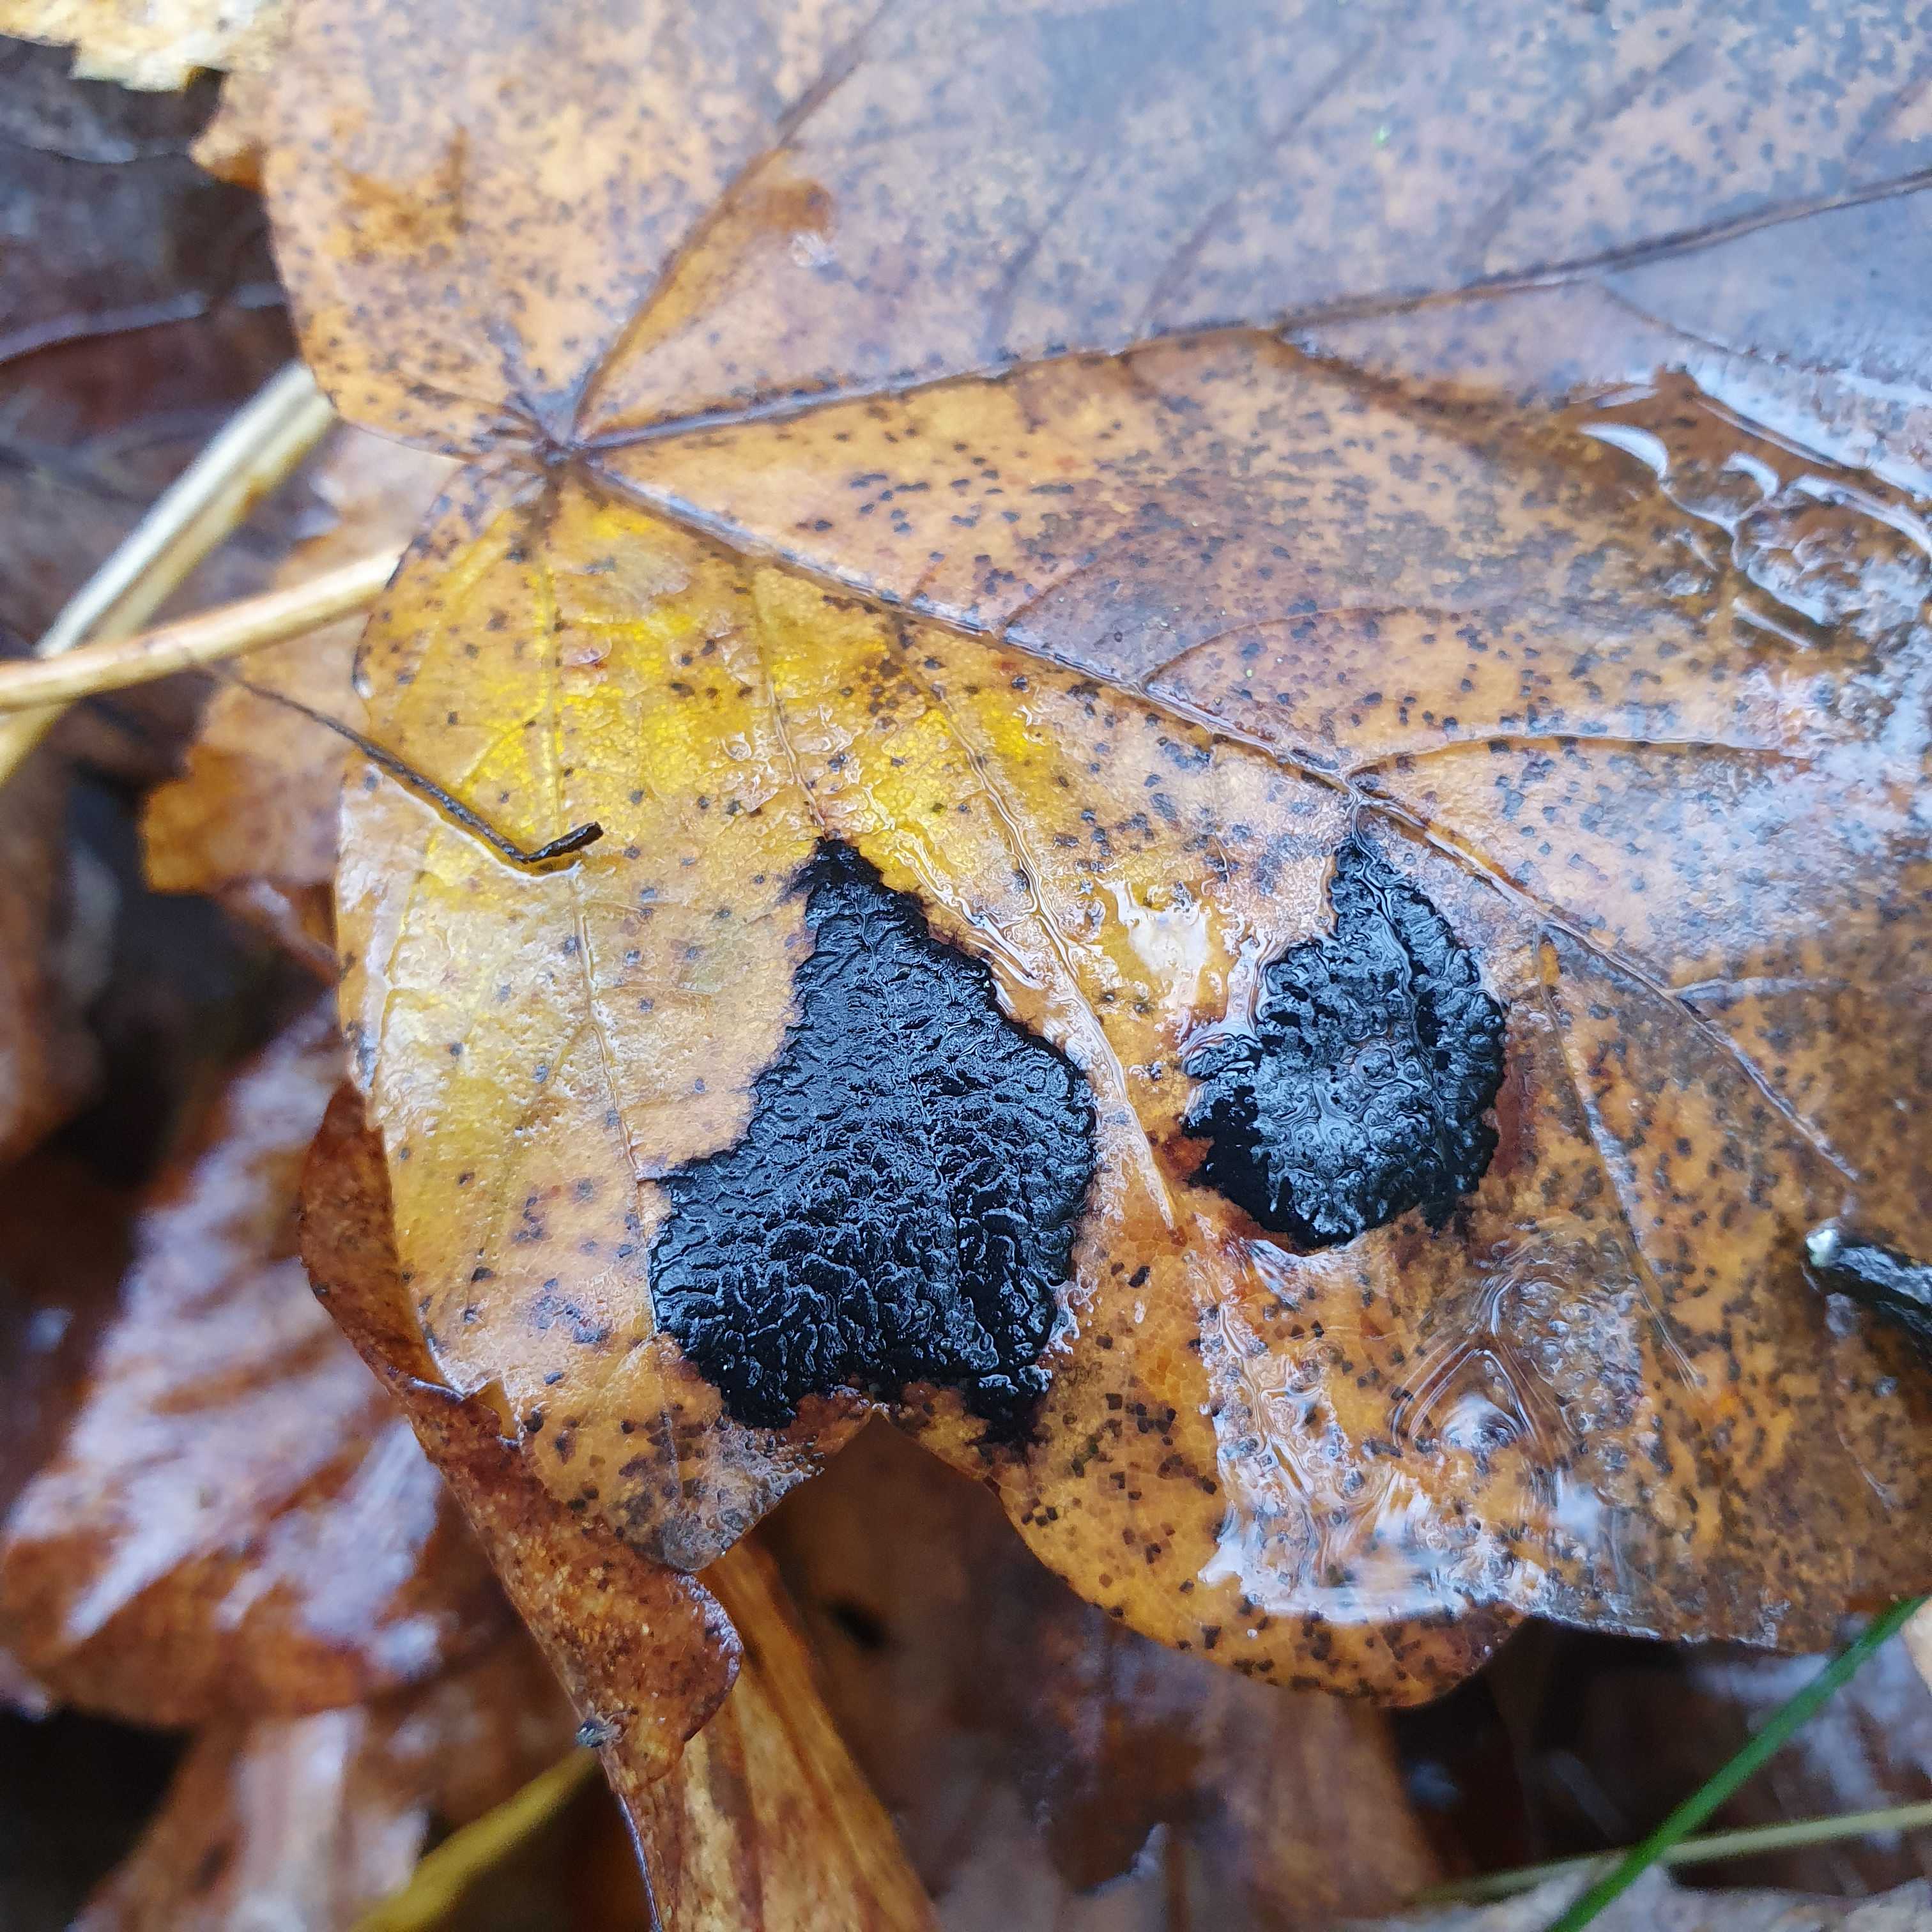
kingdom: Fungi
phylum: Ascomycota
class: Leotiomycetes
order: Rhytismatales
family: Rhytismataceae
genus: Rhytisma
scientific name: Rhytisma acerinum
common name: ahorn-rynkeplet
